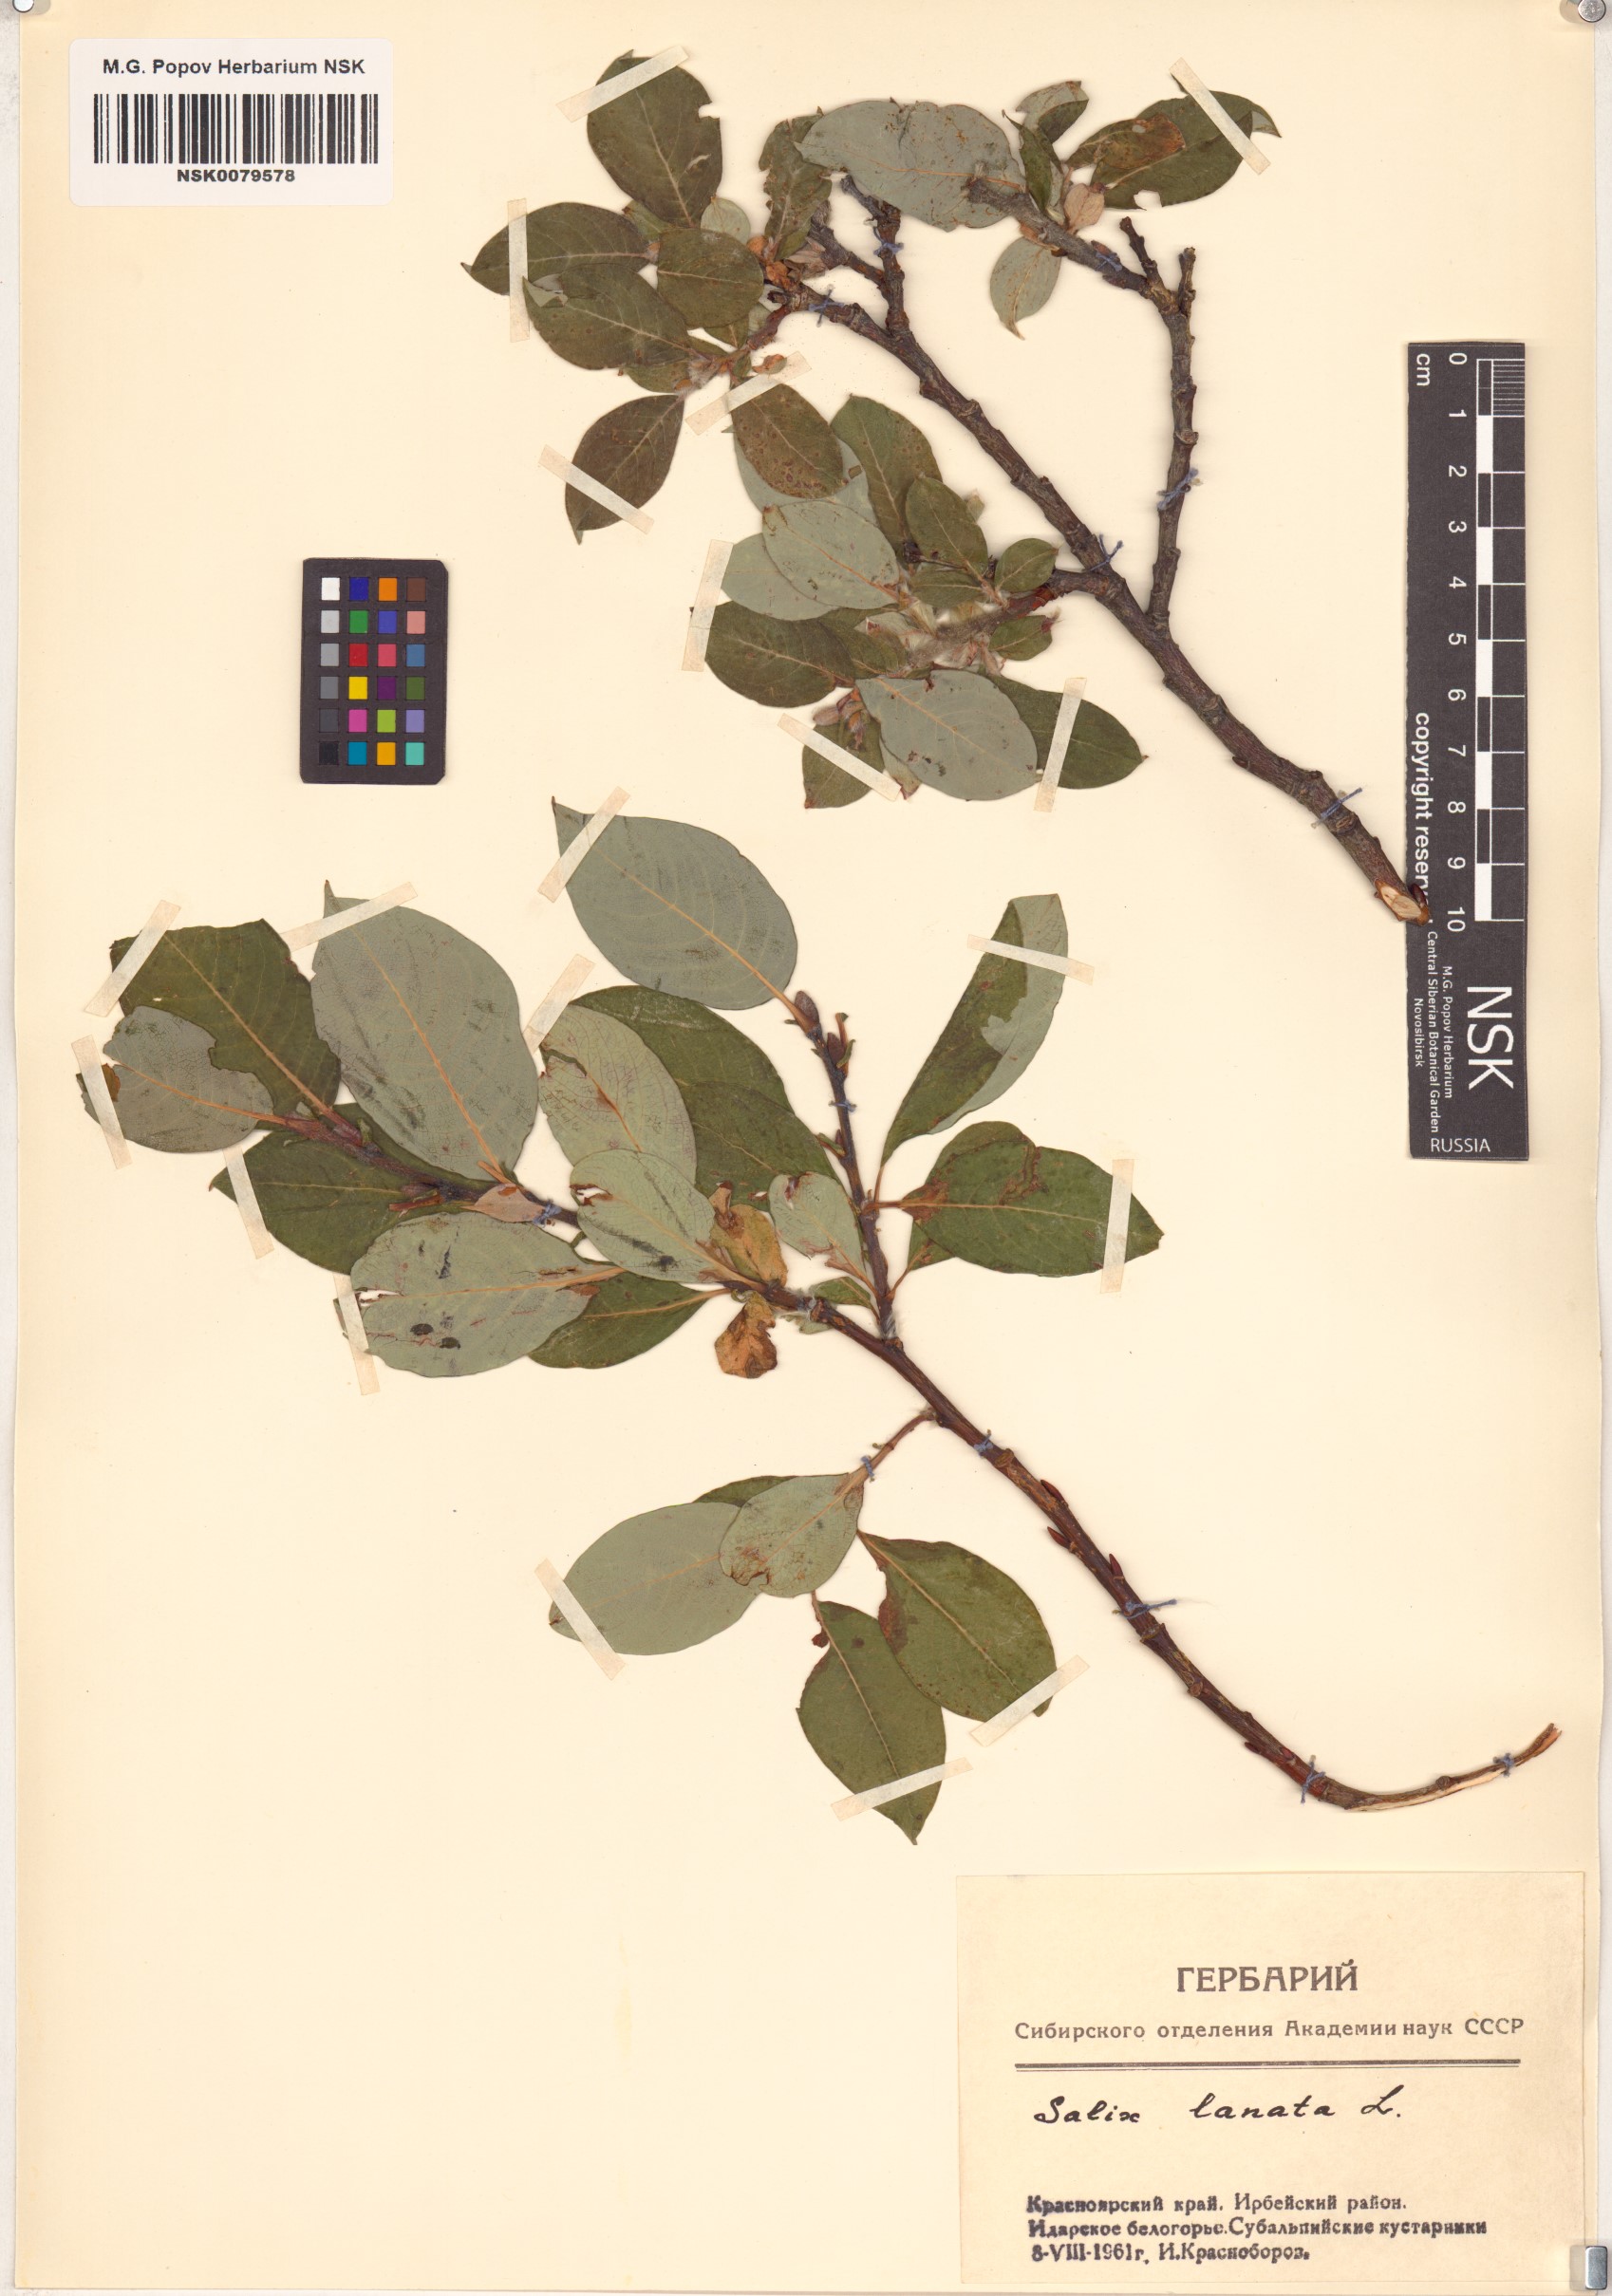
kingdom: Plantae
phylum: Tracheophyta
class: Magnoliopsida
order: Malpighiales
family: Salicaceae
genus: Salix
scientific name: Salix lanata
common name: Woolly willow
